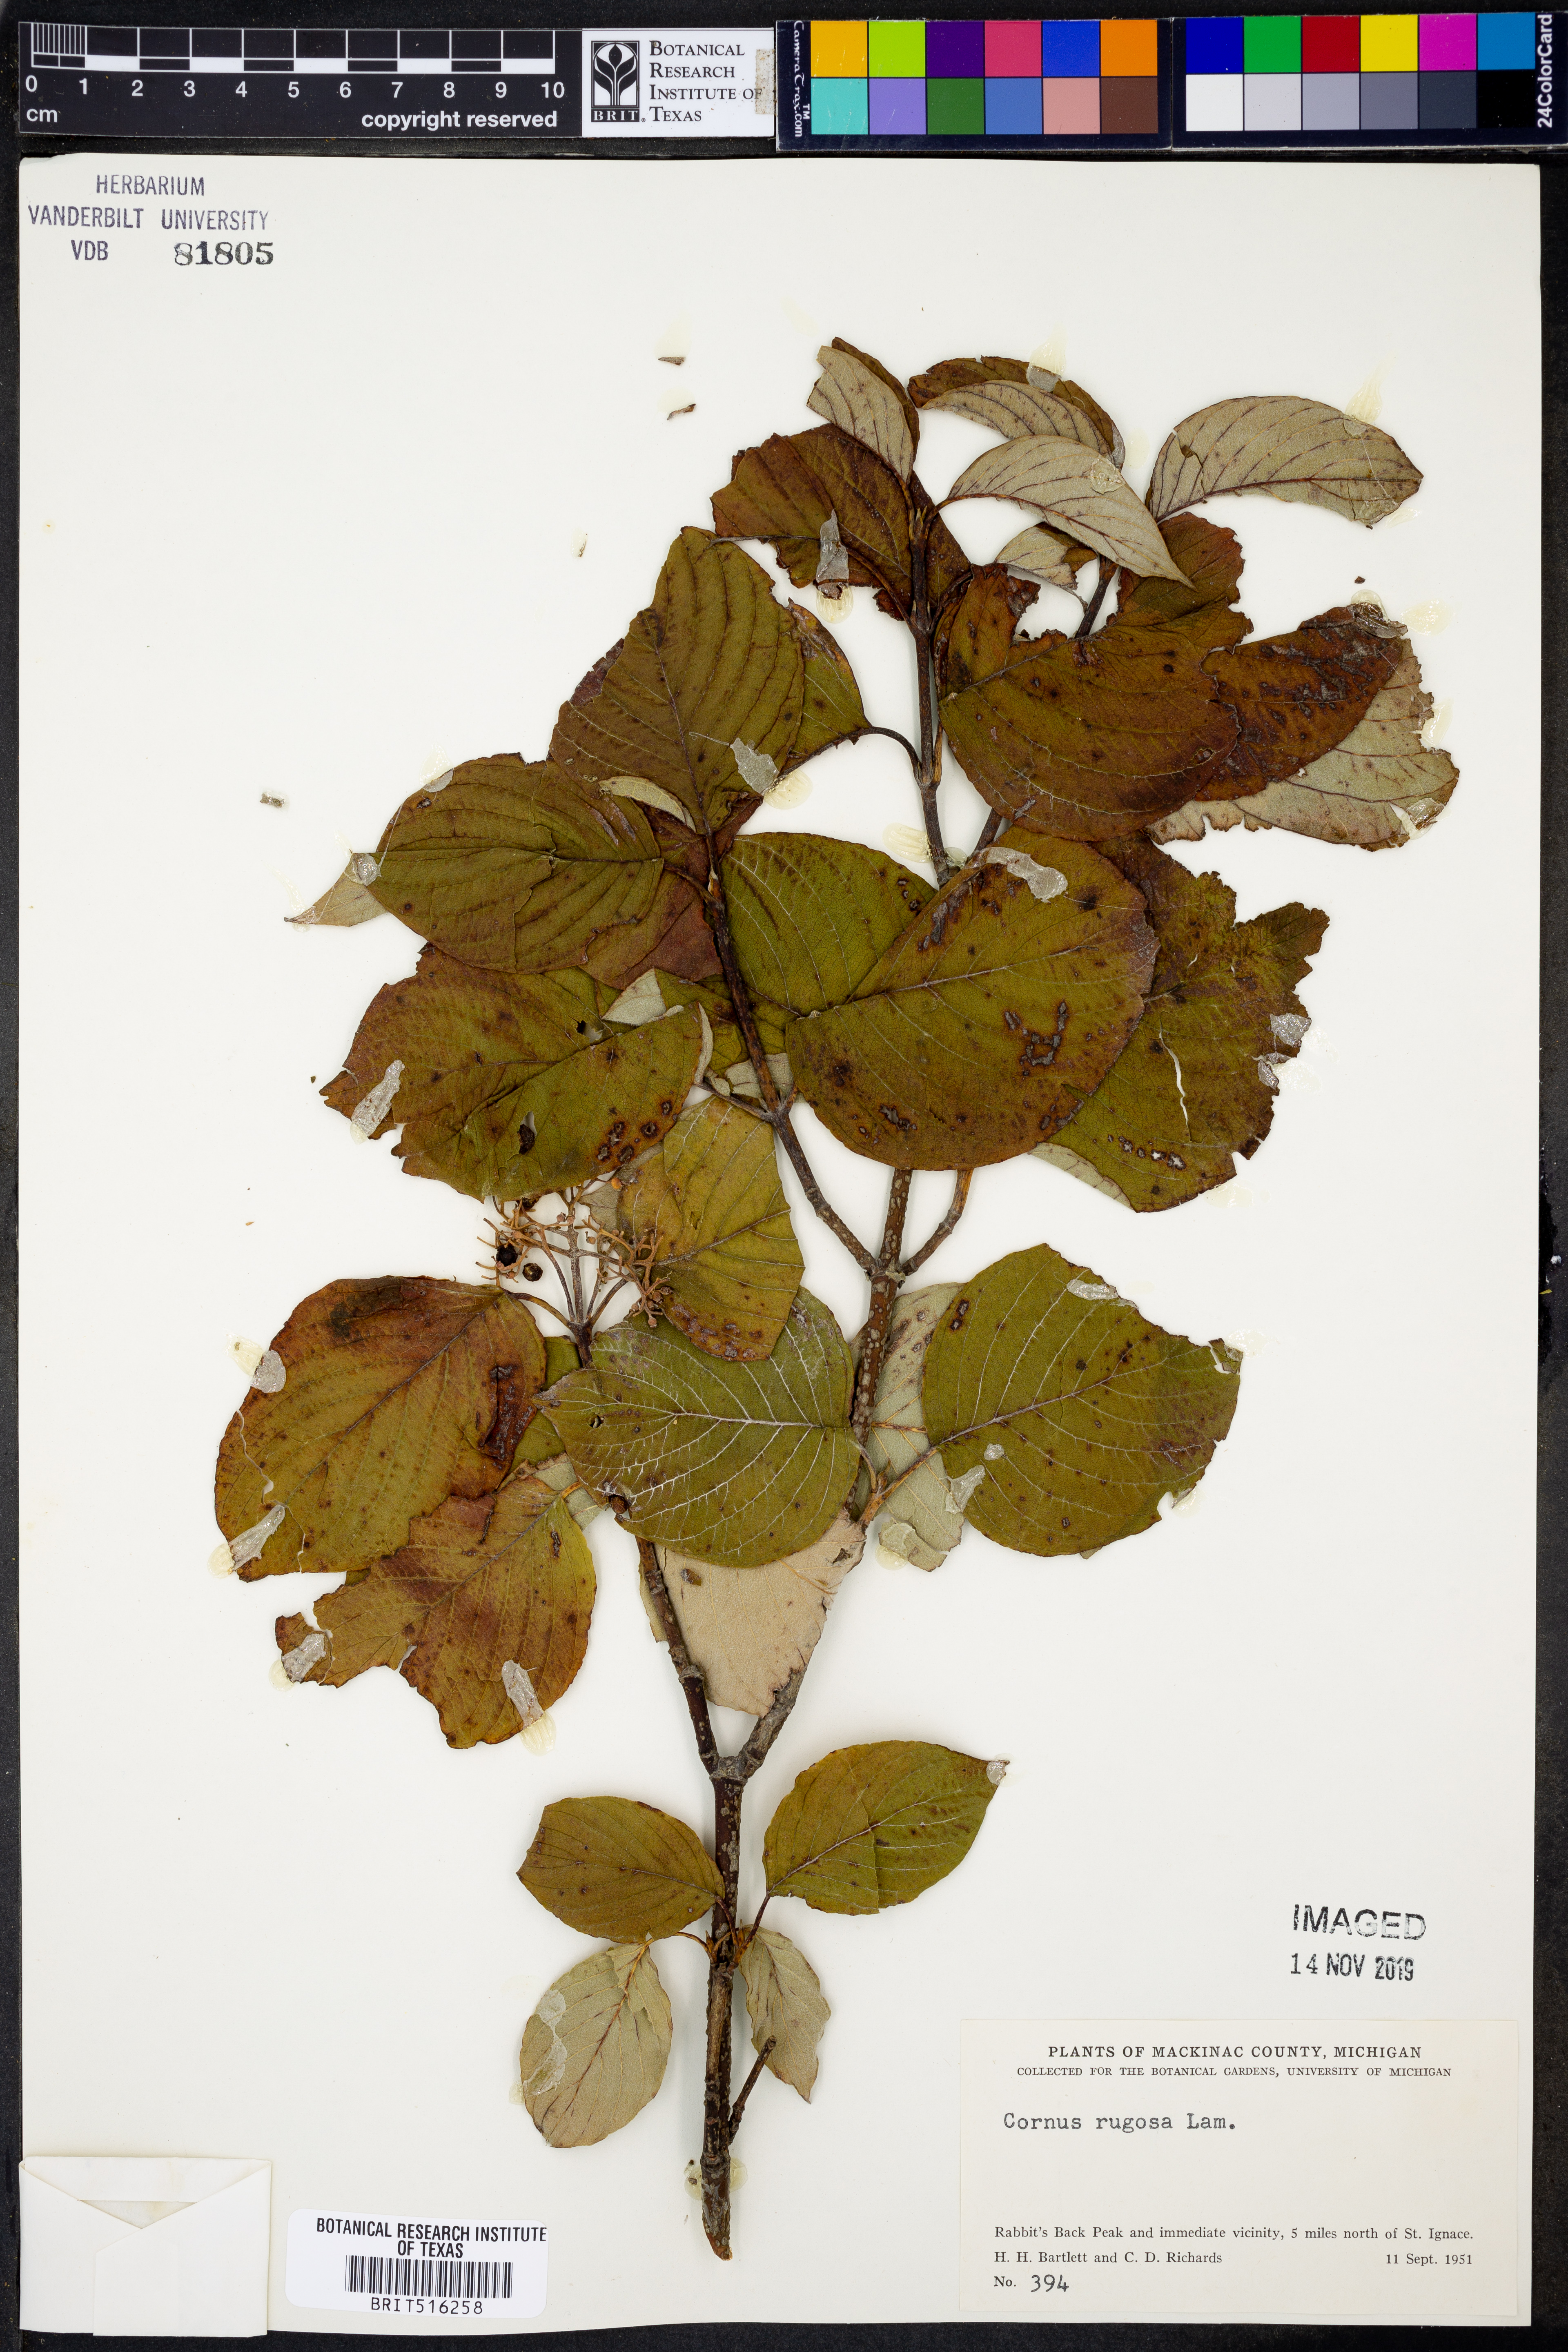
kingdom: Plantae
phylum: Tracheophyta
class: Magnoliopsida
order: Cornales
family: Cornaceae
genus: Cornus
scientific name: Cornus rugosa
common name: Round-leaf dogwood
